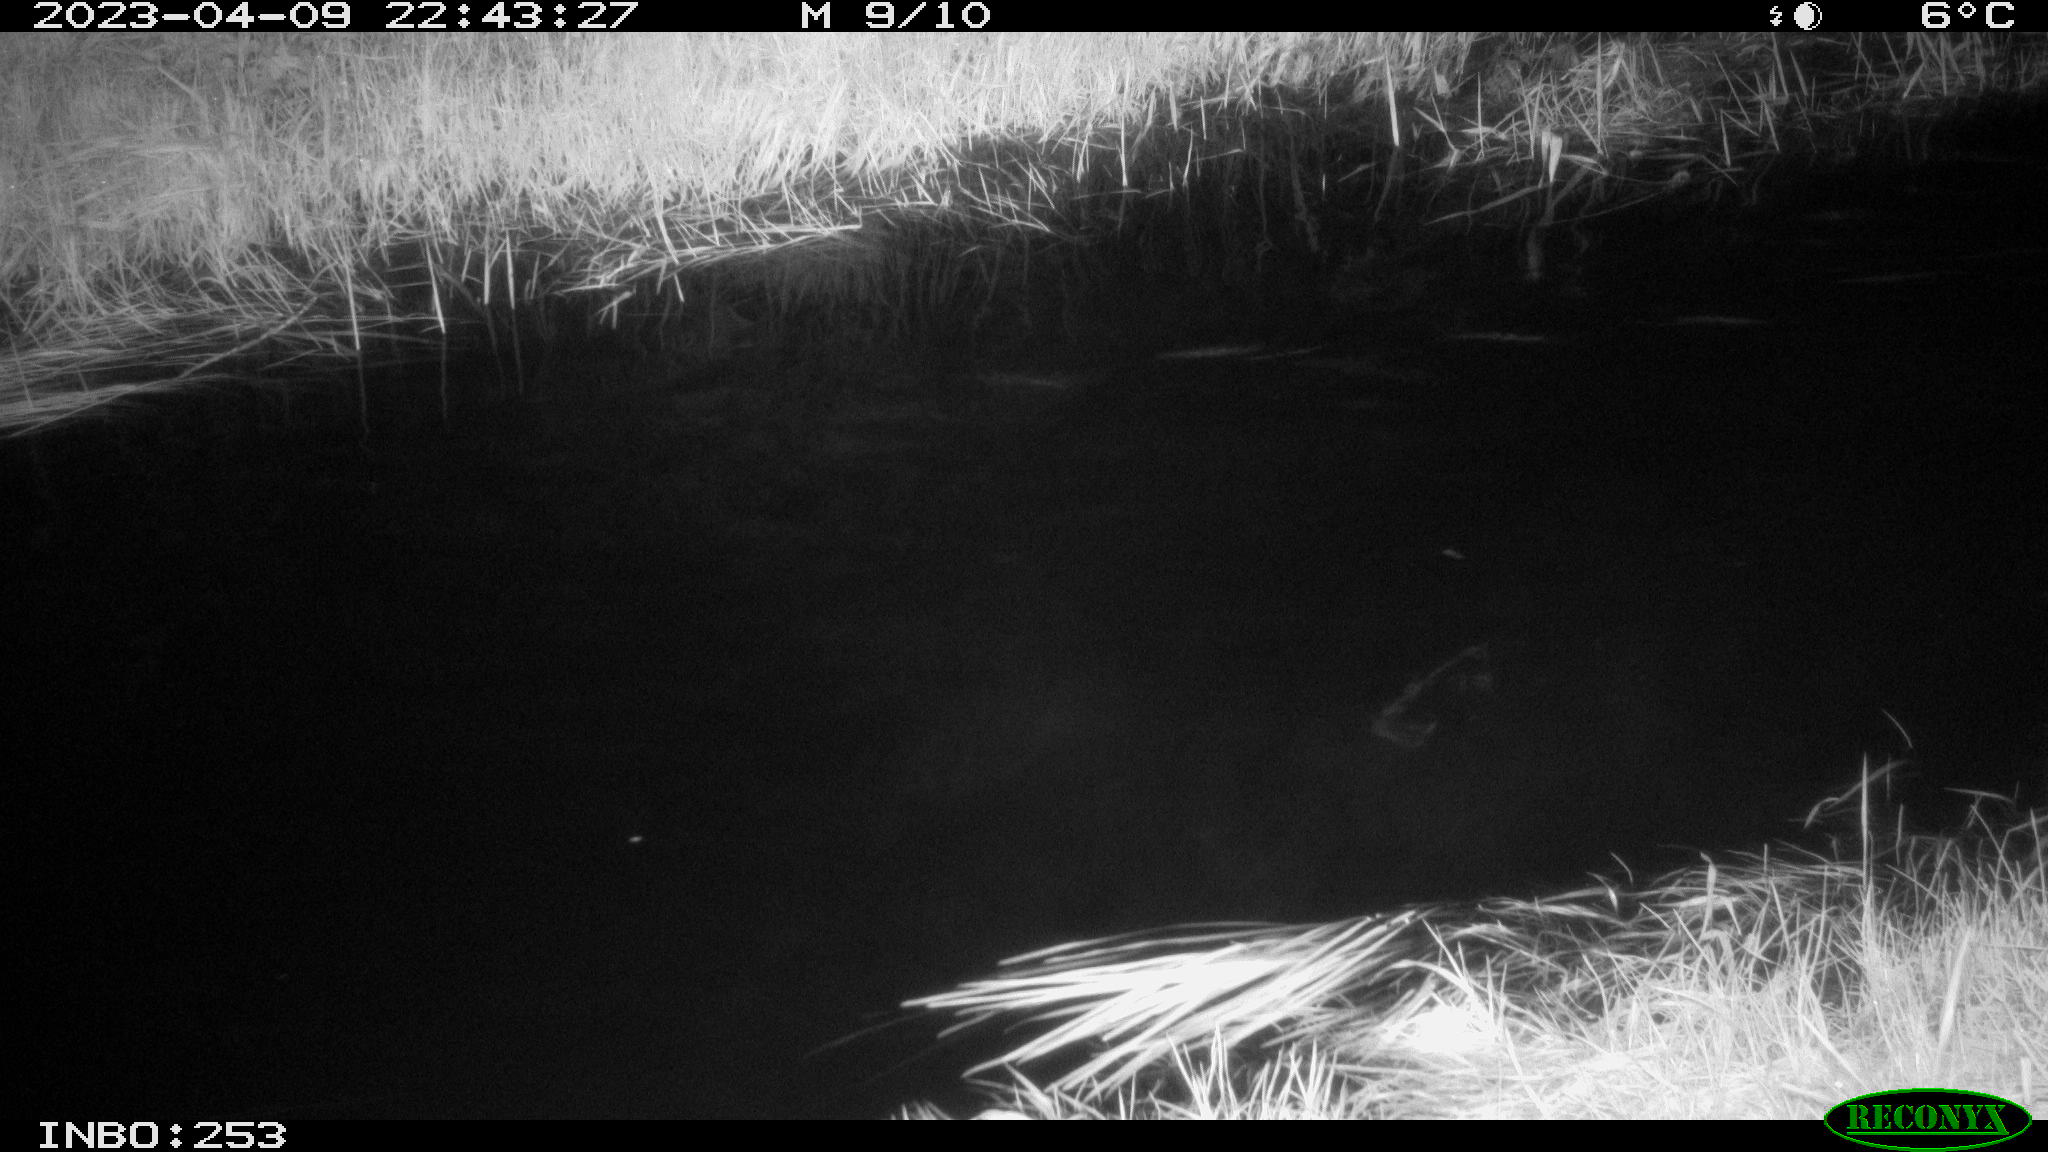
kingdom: Animalia
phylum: Chordata
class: Aves
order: Anseriformes
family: Anatidae
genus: Anas
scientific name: Anas
